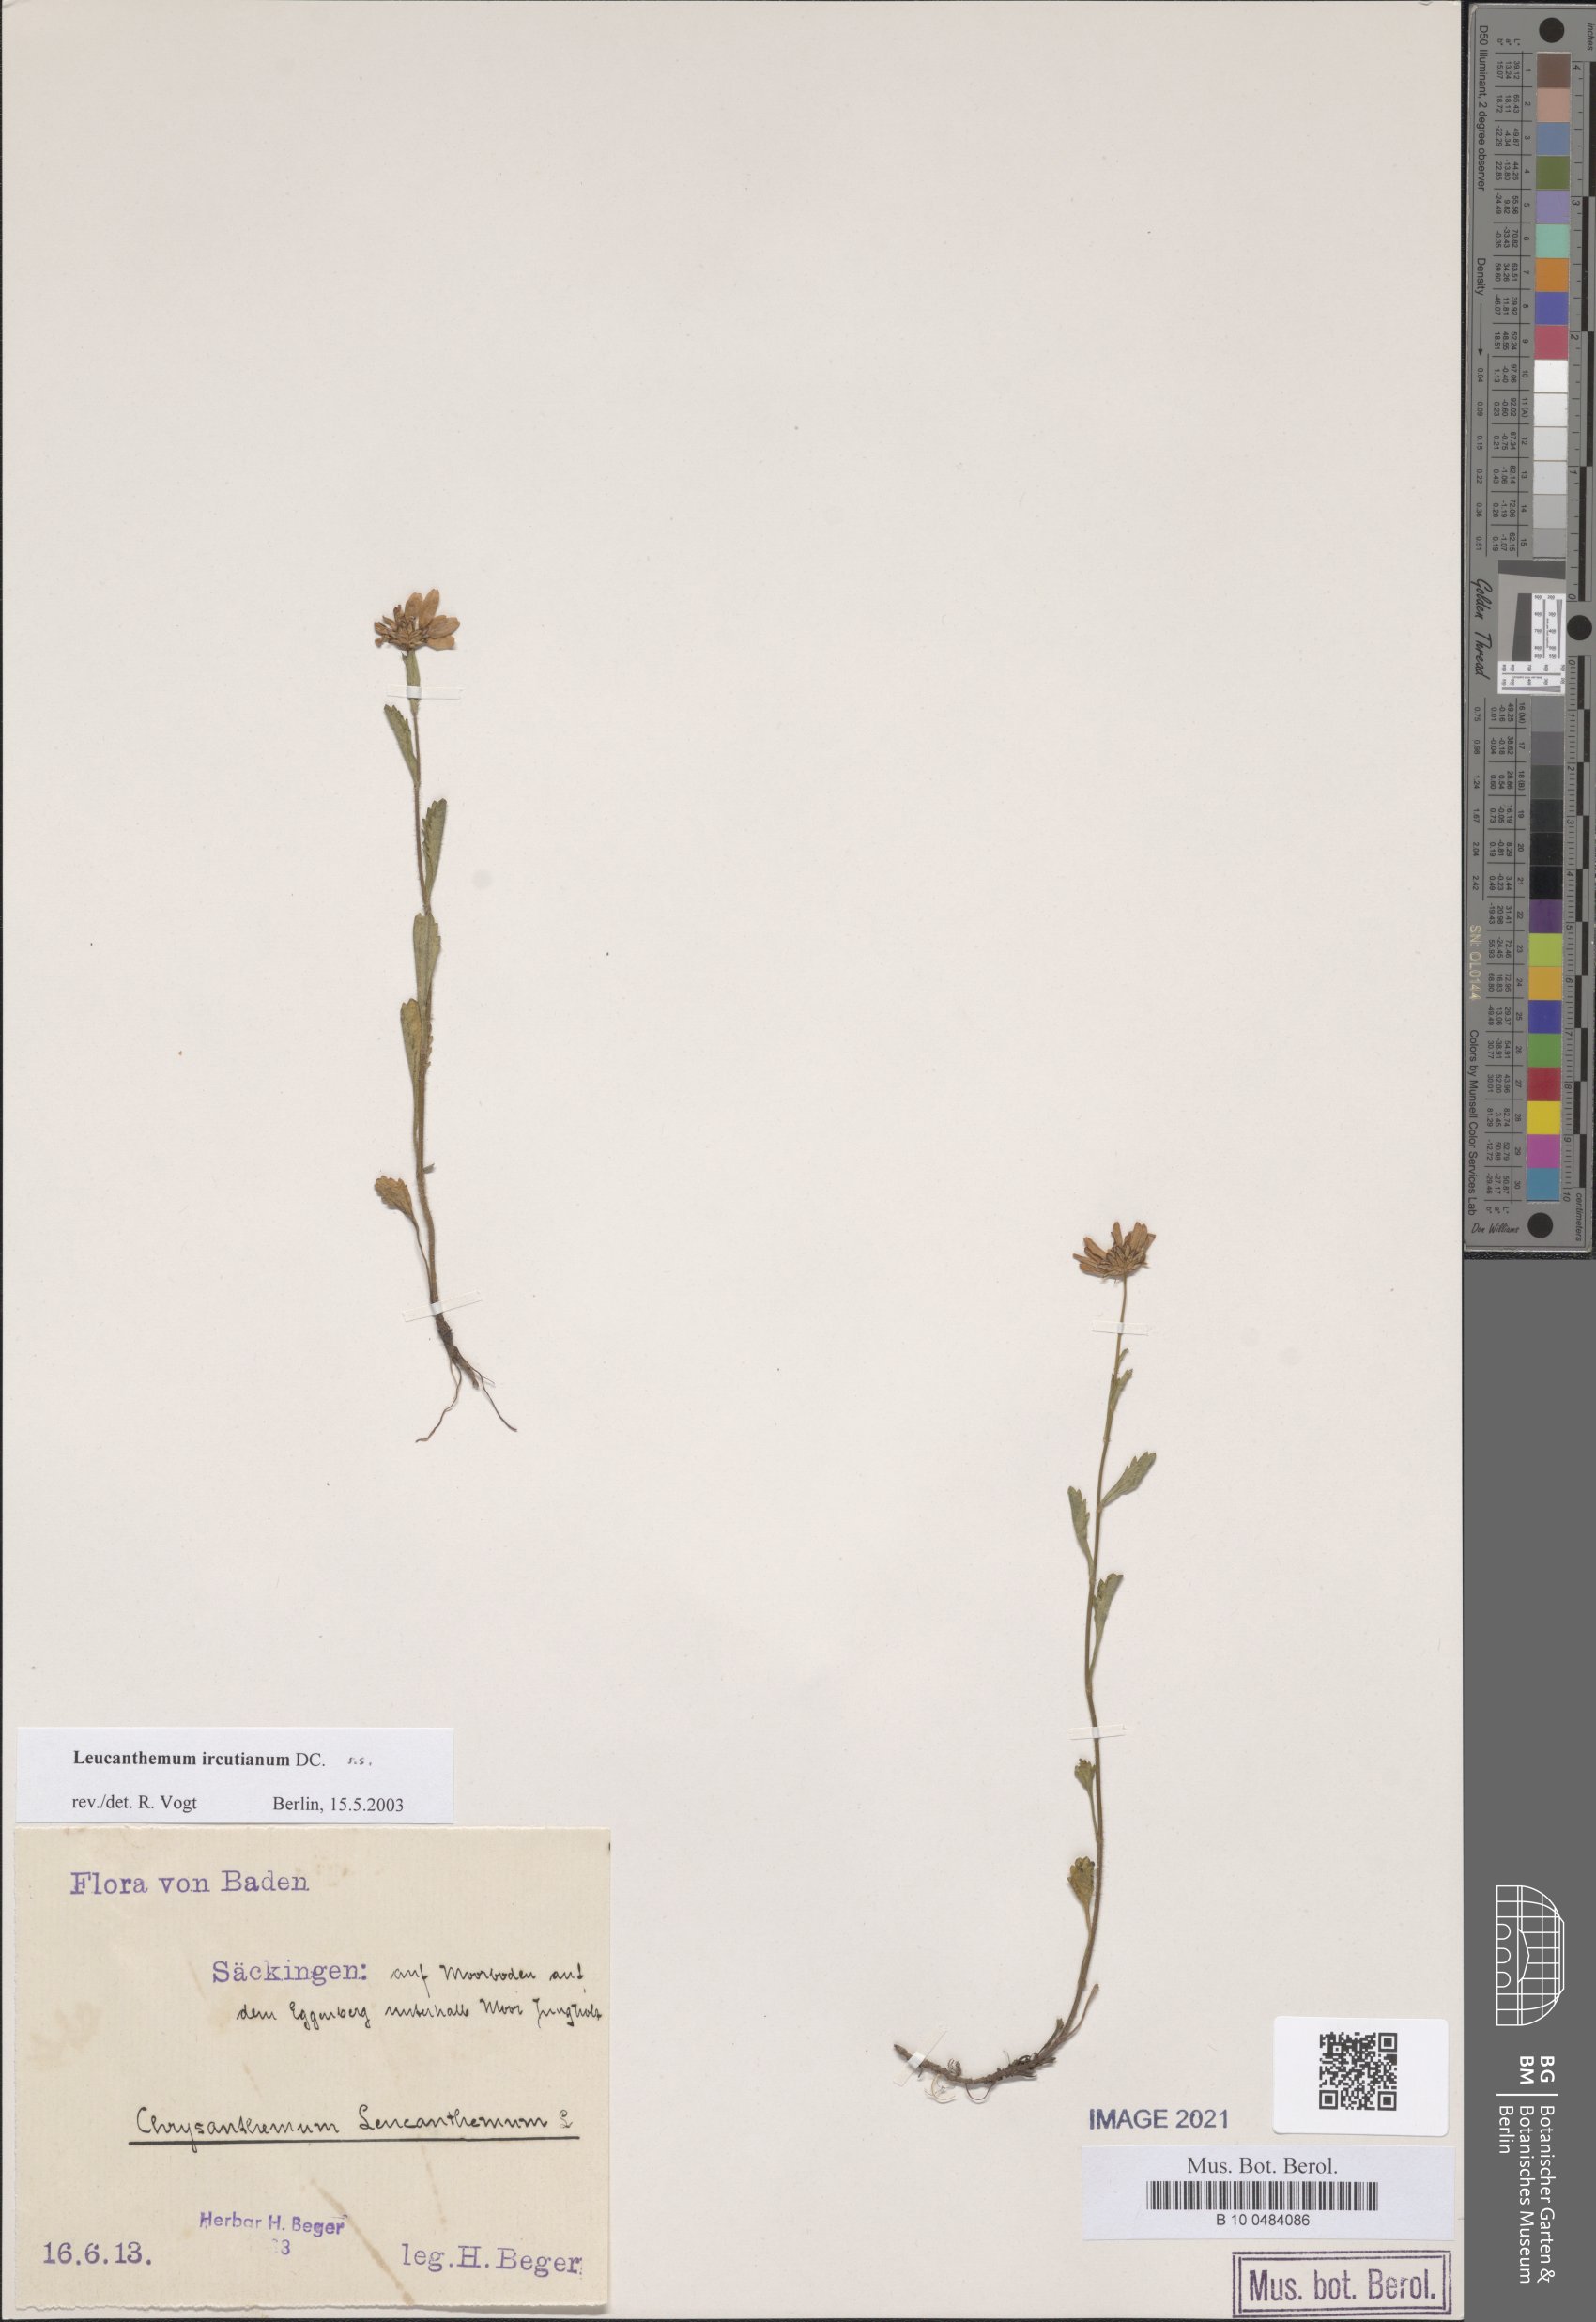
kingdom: Plantae
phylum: Tracheophyta
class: Magnoliopsida
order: Asterales
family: Asteraceae
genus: Leucanthemum
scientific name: Leucanthemum ircutianum
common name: Daisy
